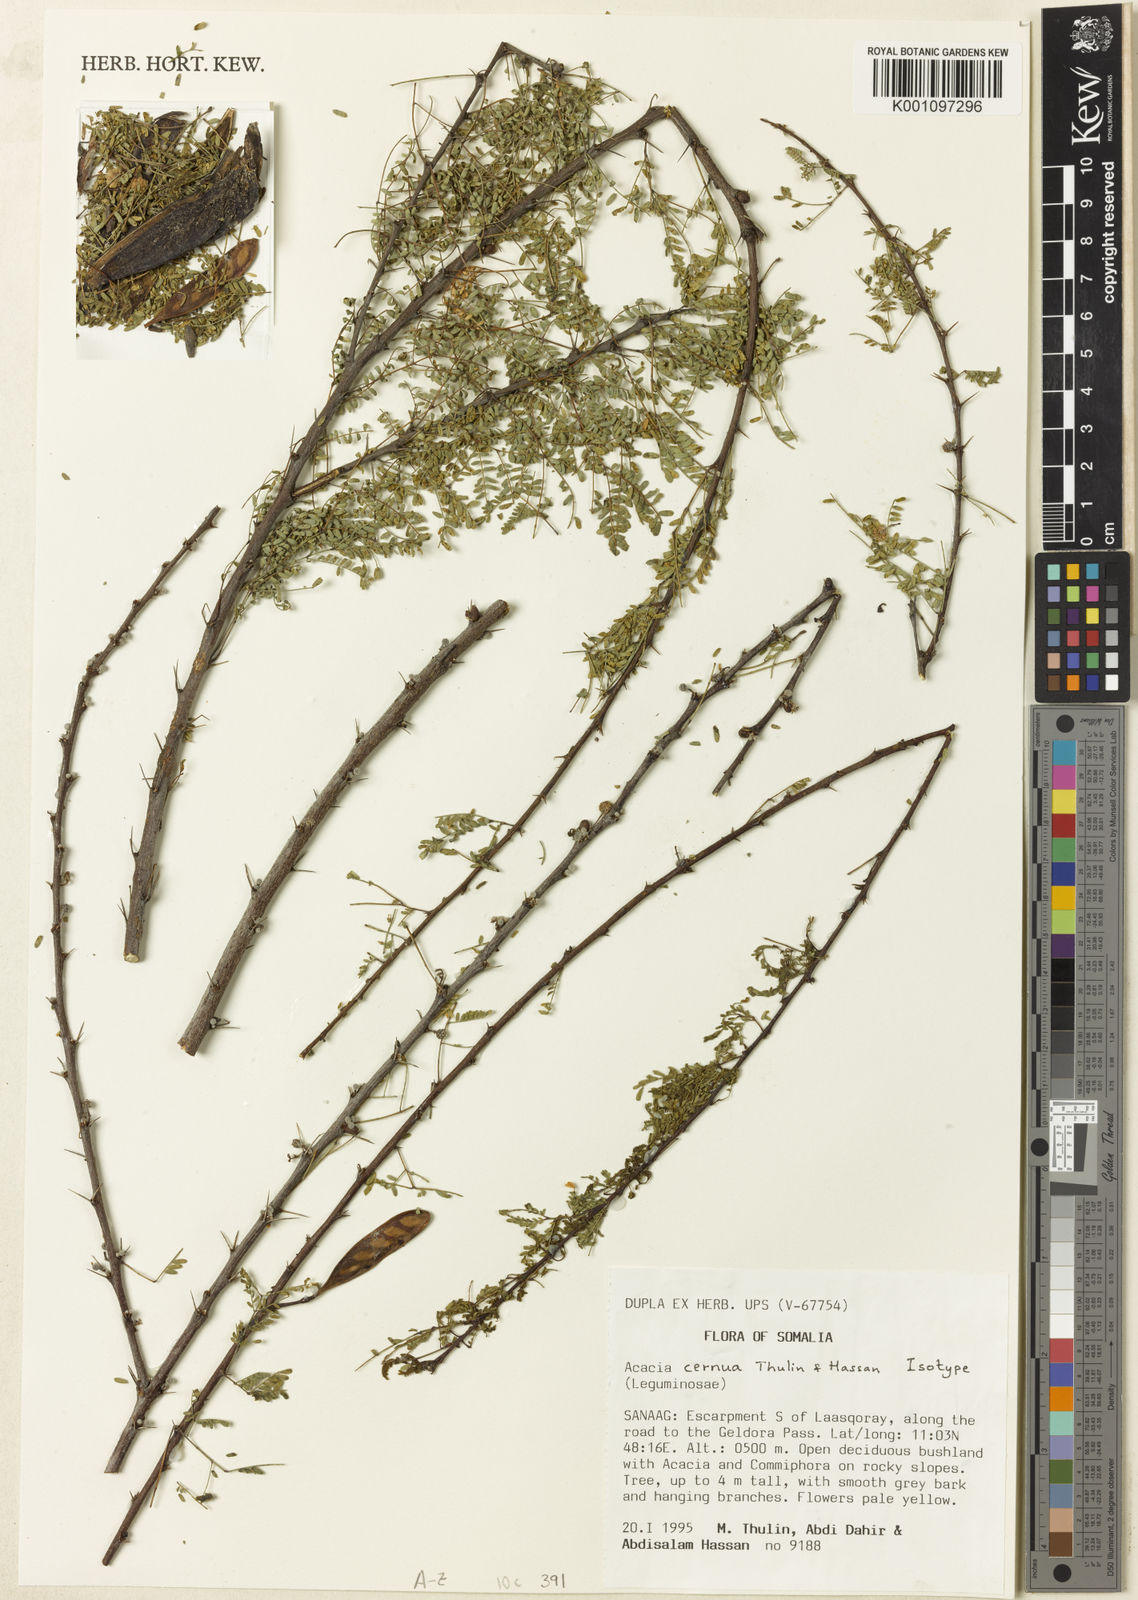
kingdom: Plantae
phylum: Tracheophyta
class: Magnoliopsida
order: Fabales
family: Fabaceae
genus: Vachellia
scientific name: Vachellia cernua
